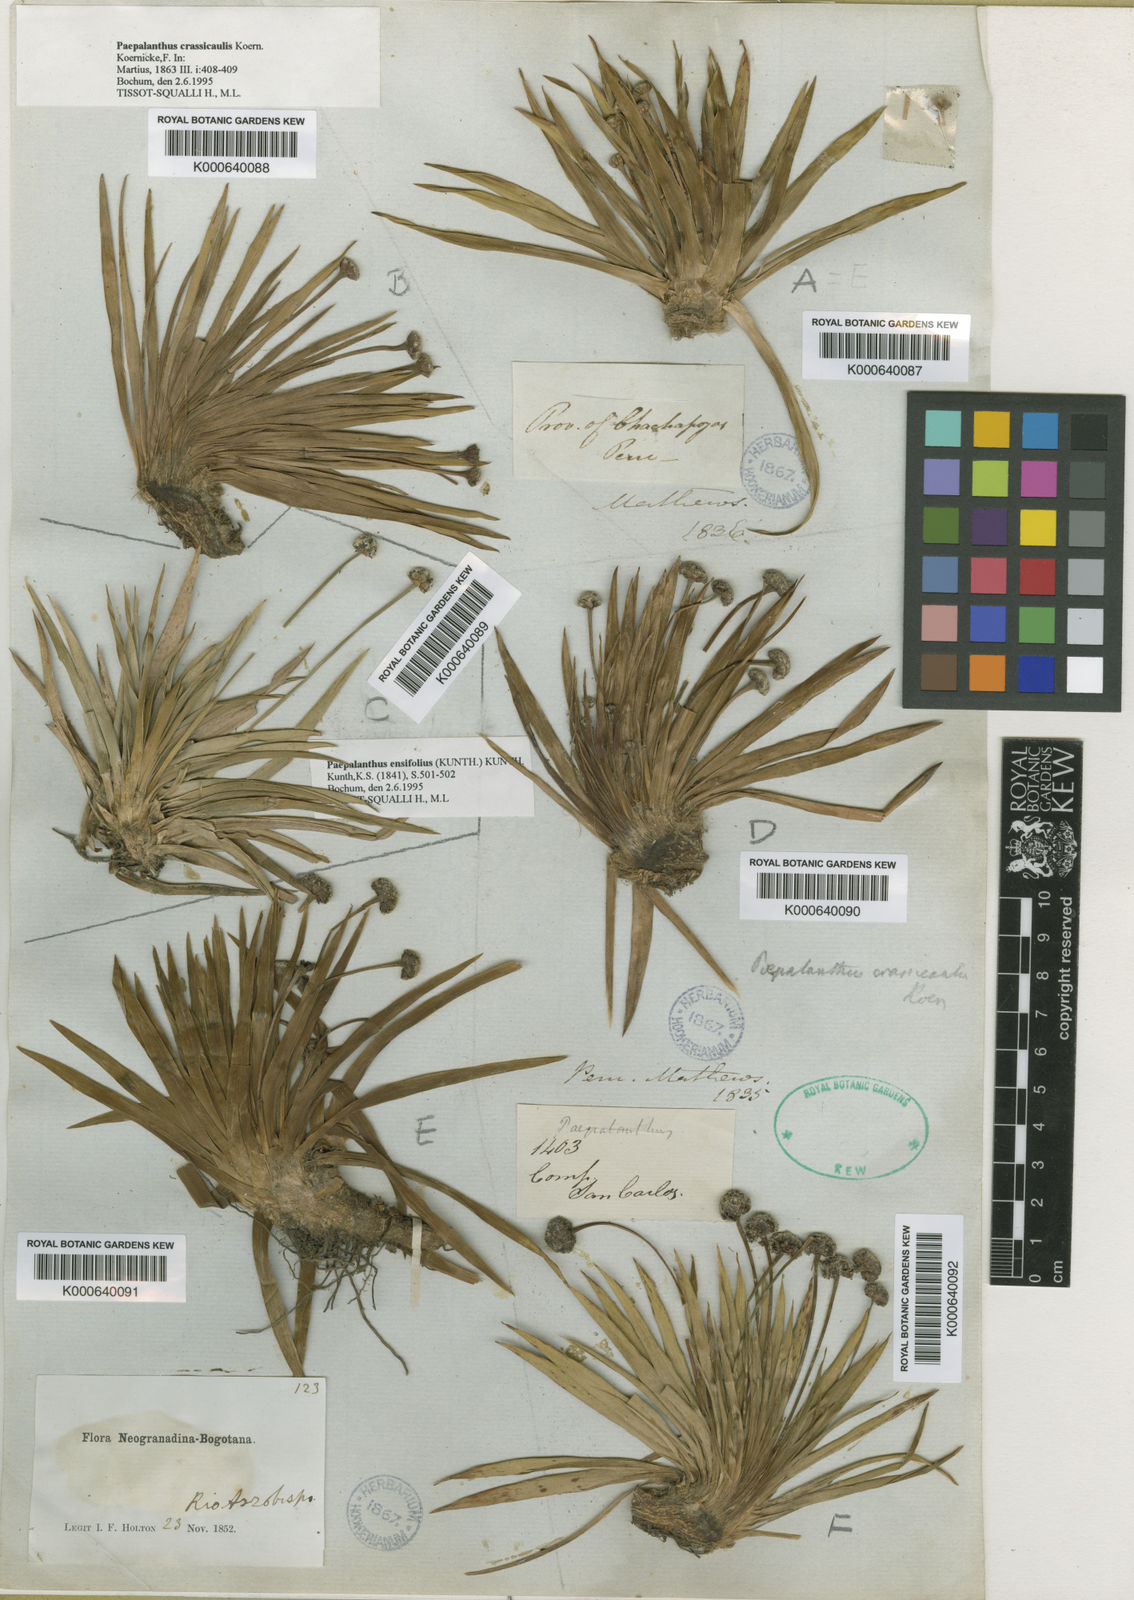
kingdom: Plantae
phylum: Tracheophyta
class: Liliopsida
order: Poales
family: Eriocaulaceae
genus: Paepalanthus
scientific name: Paepalanthus ensifolius
